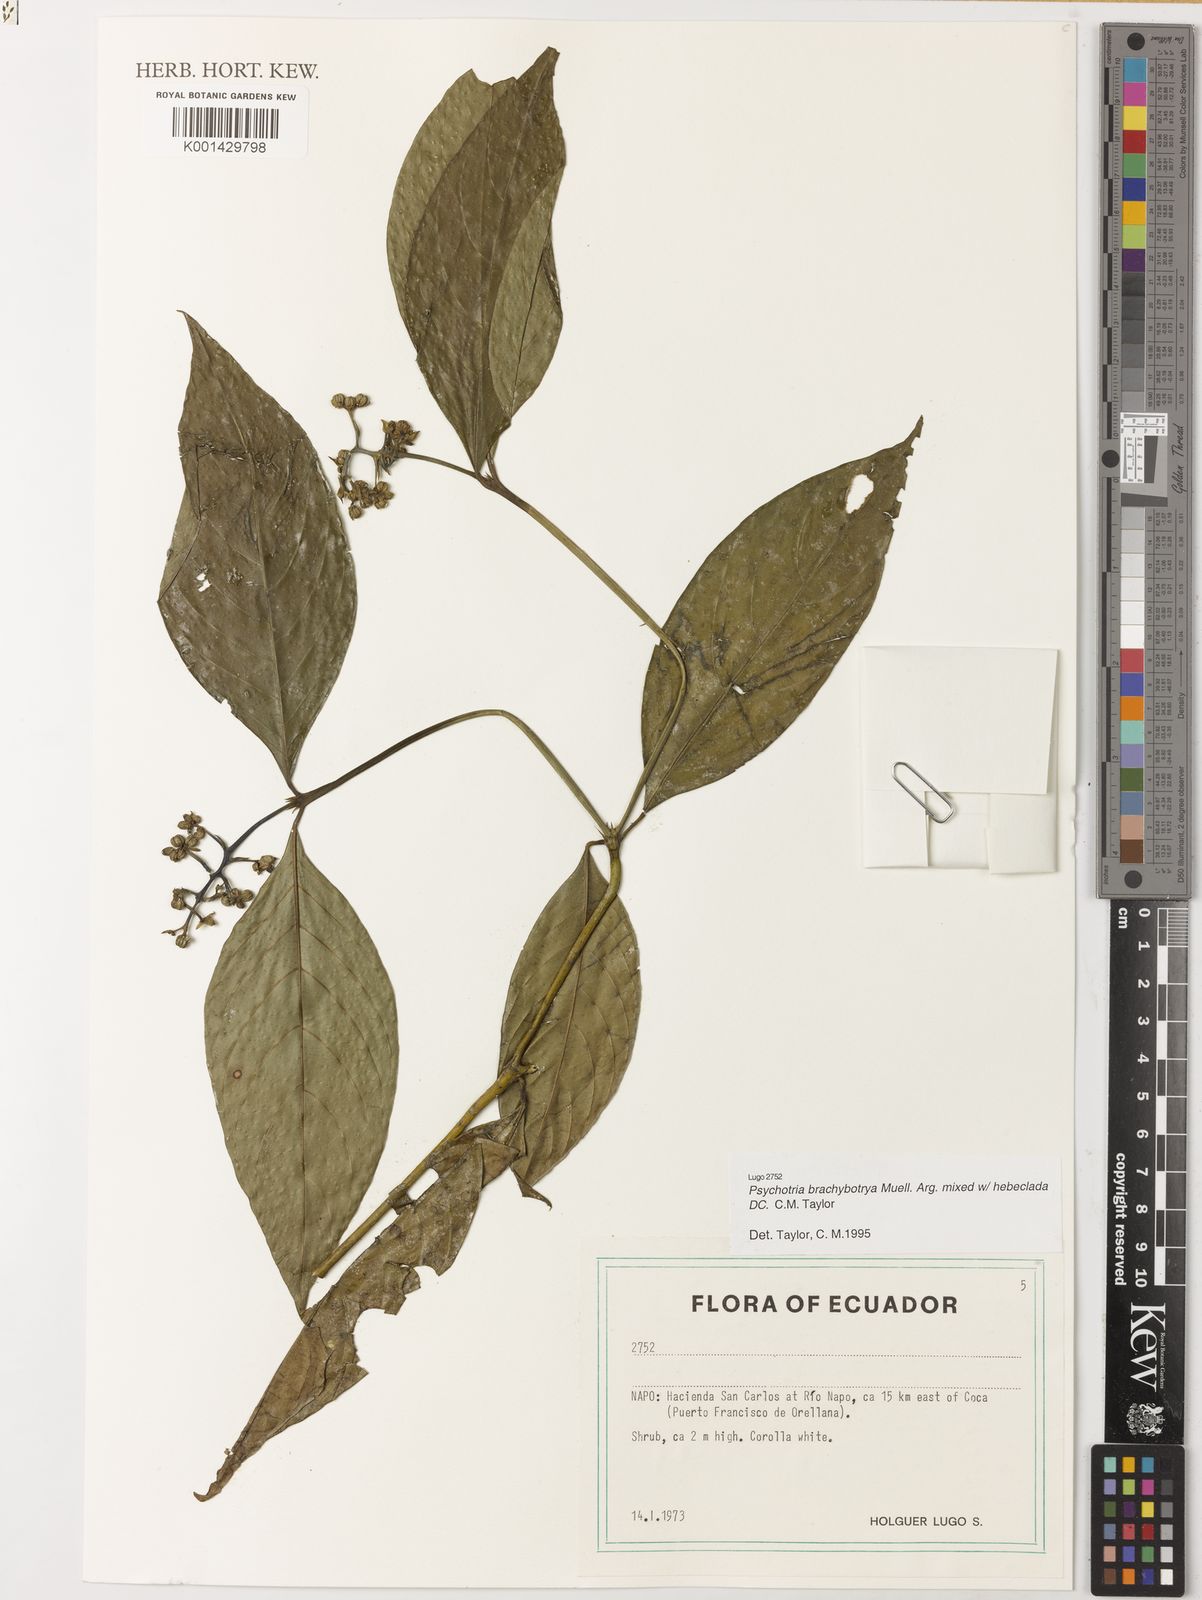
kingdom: Plantae
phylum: Tracheophyta
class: Magnoliopsida
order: Gentianales
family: Rubiaceae
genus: Psychotria
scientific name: Psychotria
